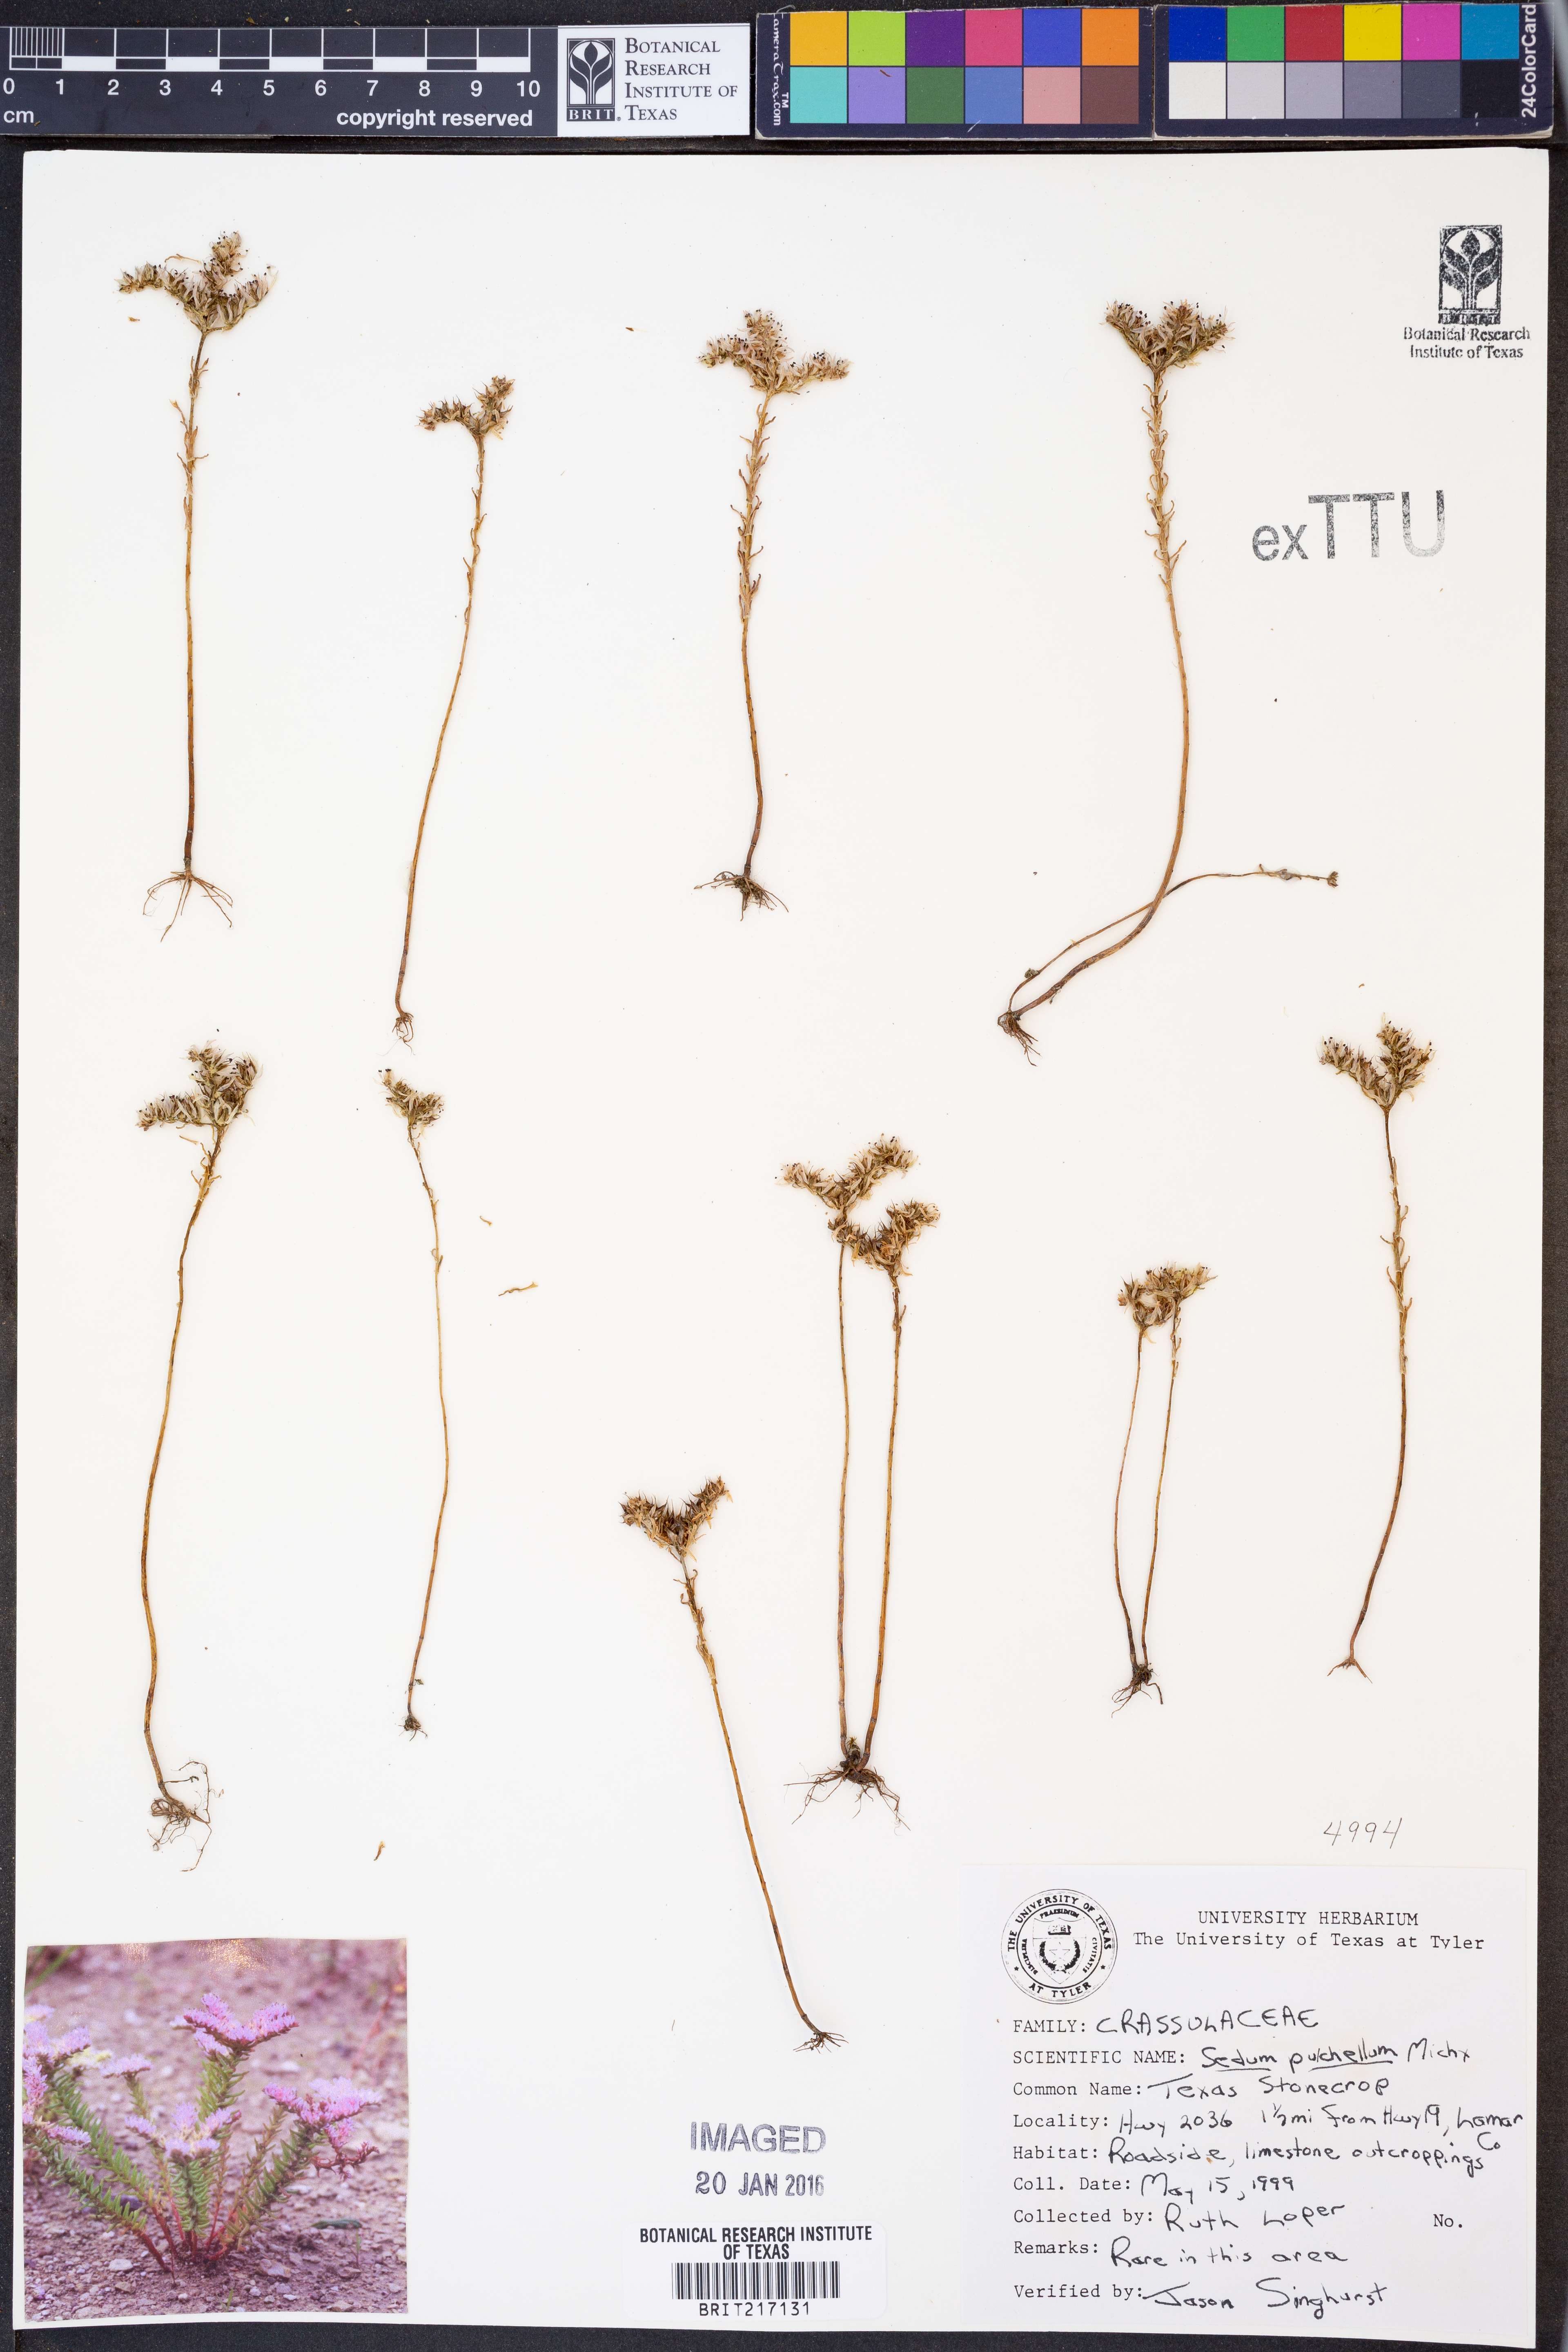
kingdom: Plantae
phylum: Tracheophyta
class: Magnoliopsida
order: Saxifragales
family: Crassulaceae
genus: Sedum
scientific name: Sedum pulchellum
